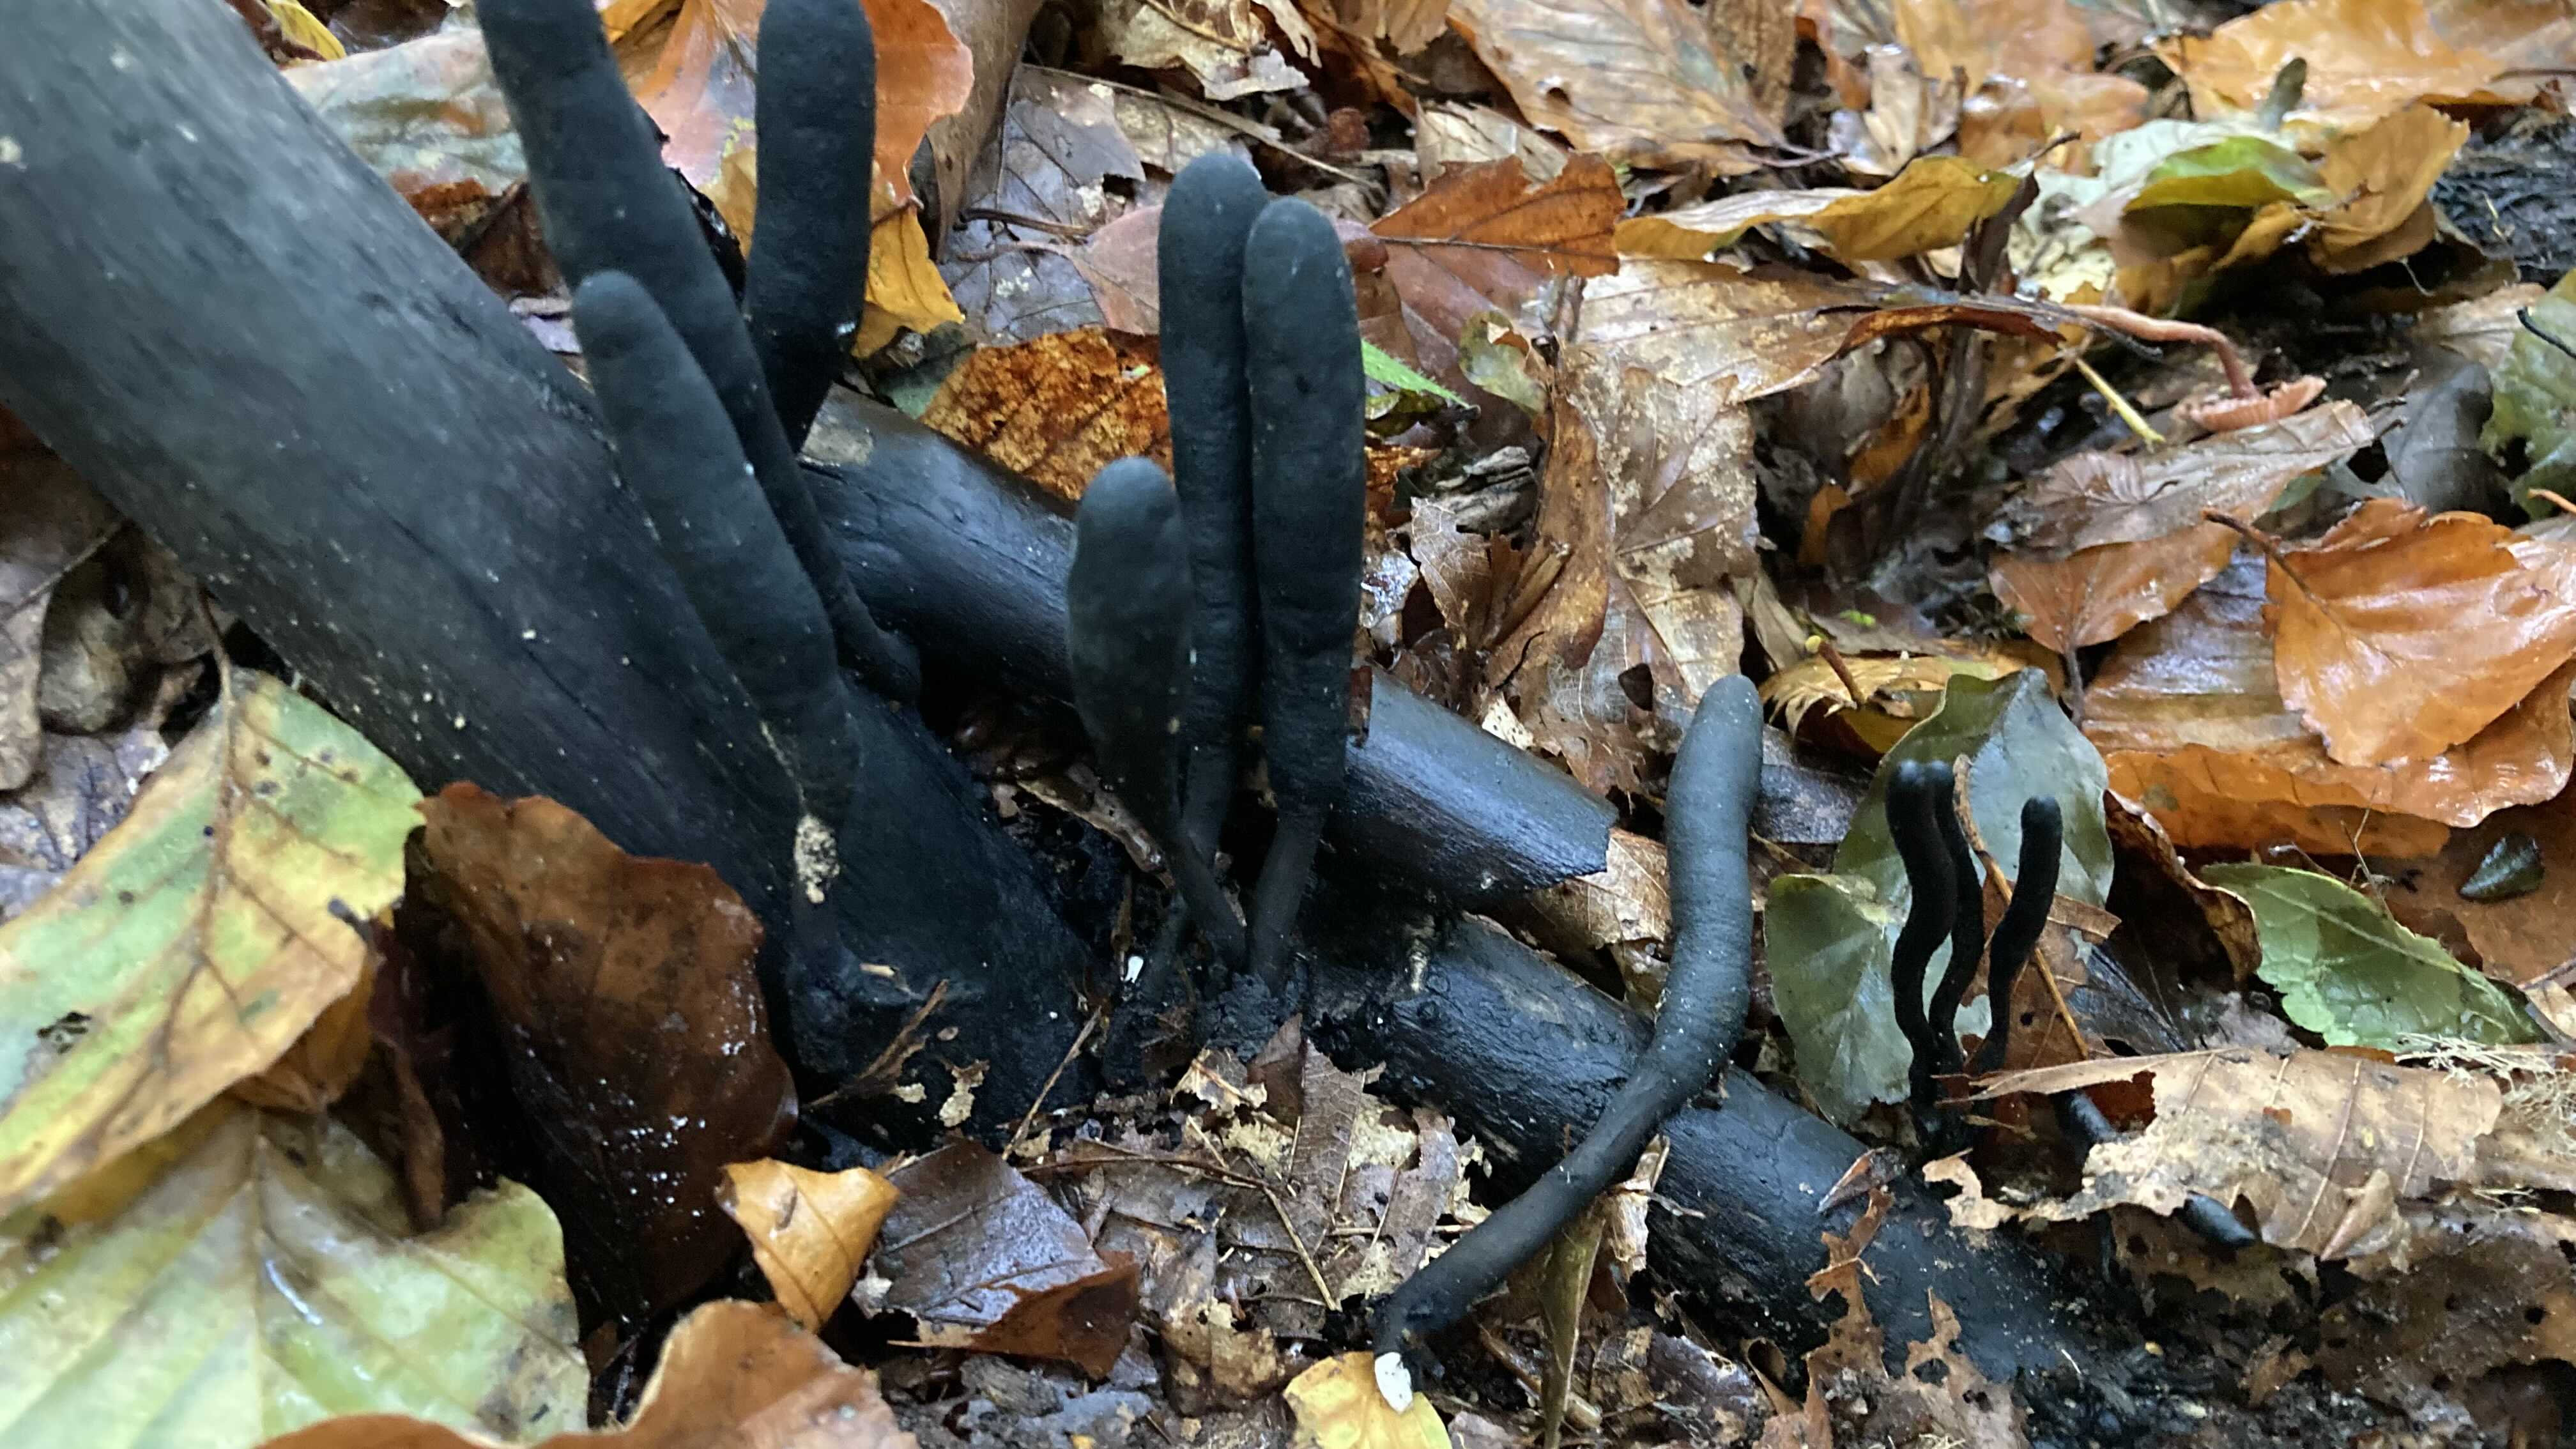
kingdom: Fungi
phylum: Ascomycota
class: Sordariomycetes
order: Xylariales
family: Xylariaceae
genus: Xylaria
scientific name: Xylaria longipes
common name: slank stødsvamp
